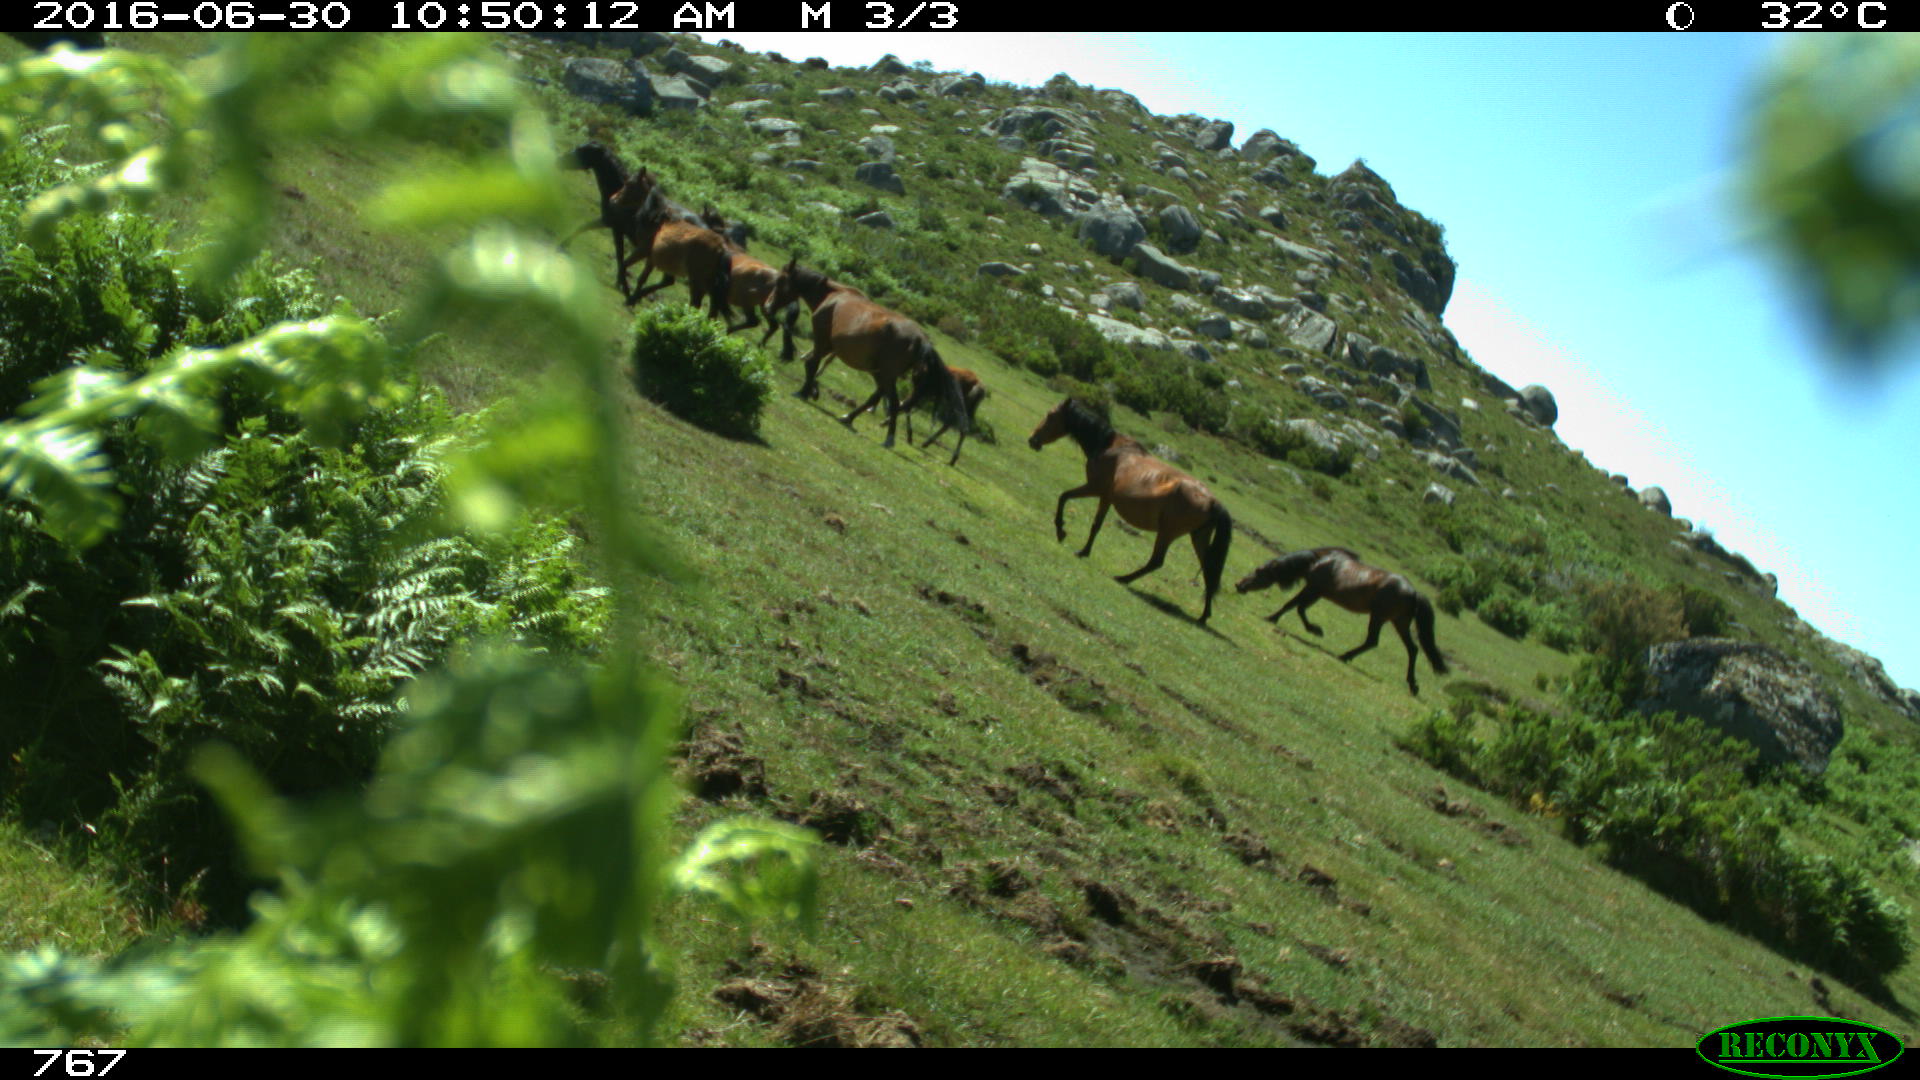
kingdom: Animalia
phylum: Chordata
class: Mammalia
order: Perissodactyla
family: Equidae
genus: Equus
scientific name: Equus caballus
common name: Horse
